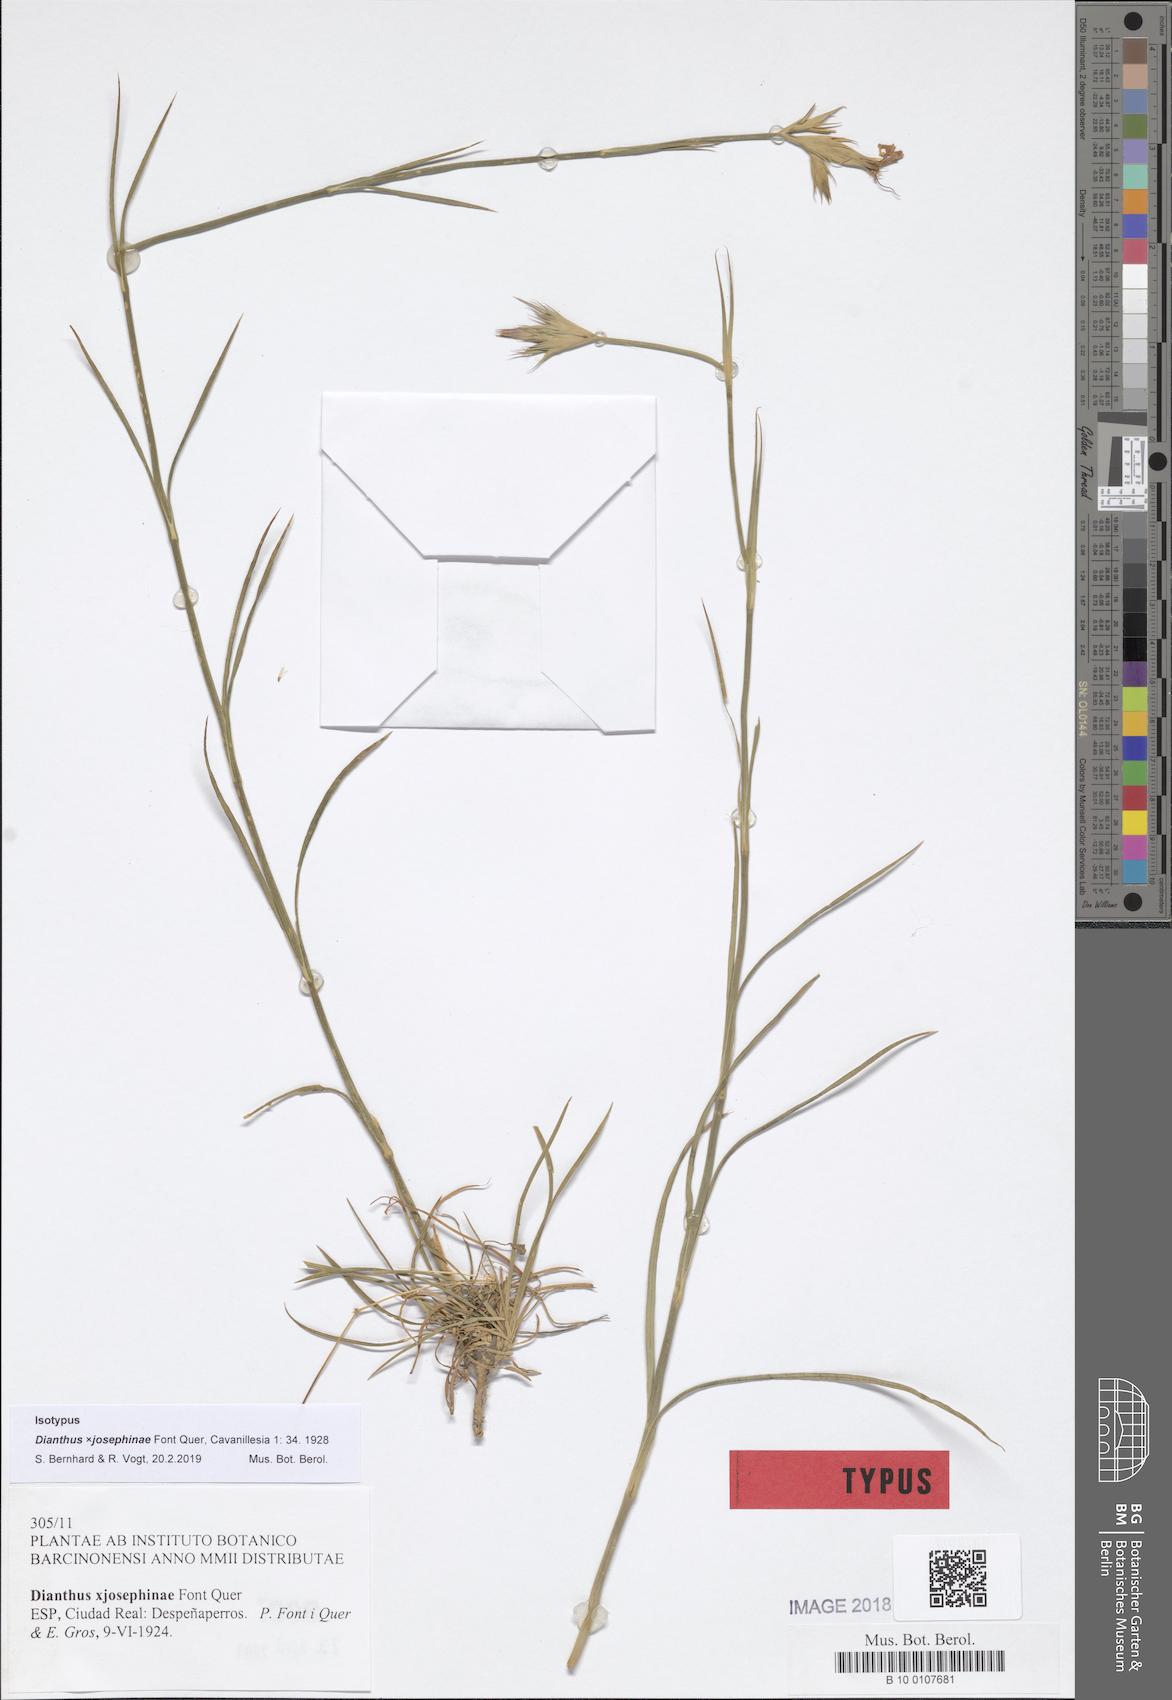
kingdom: Plantae
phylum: Tracheophyta
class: Magnoliopsida
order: Caryophyllales
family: Caryophyllaceae
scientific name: Caryophyllaceae
